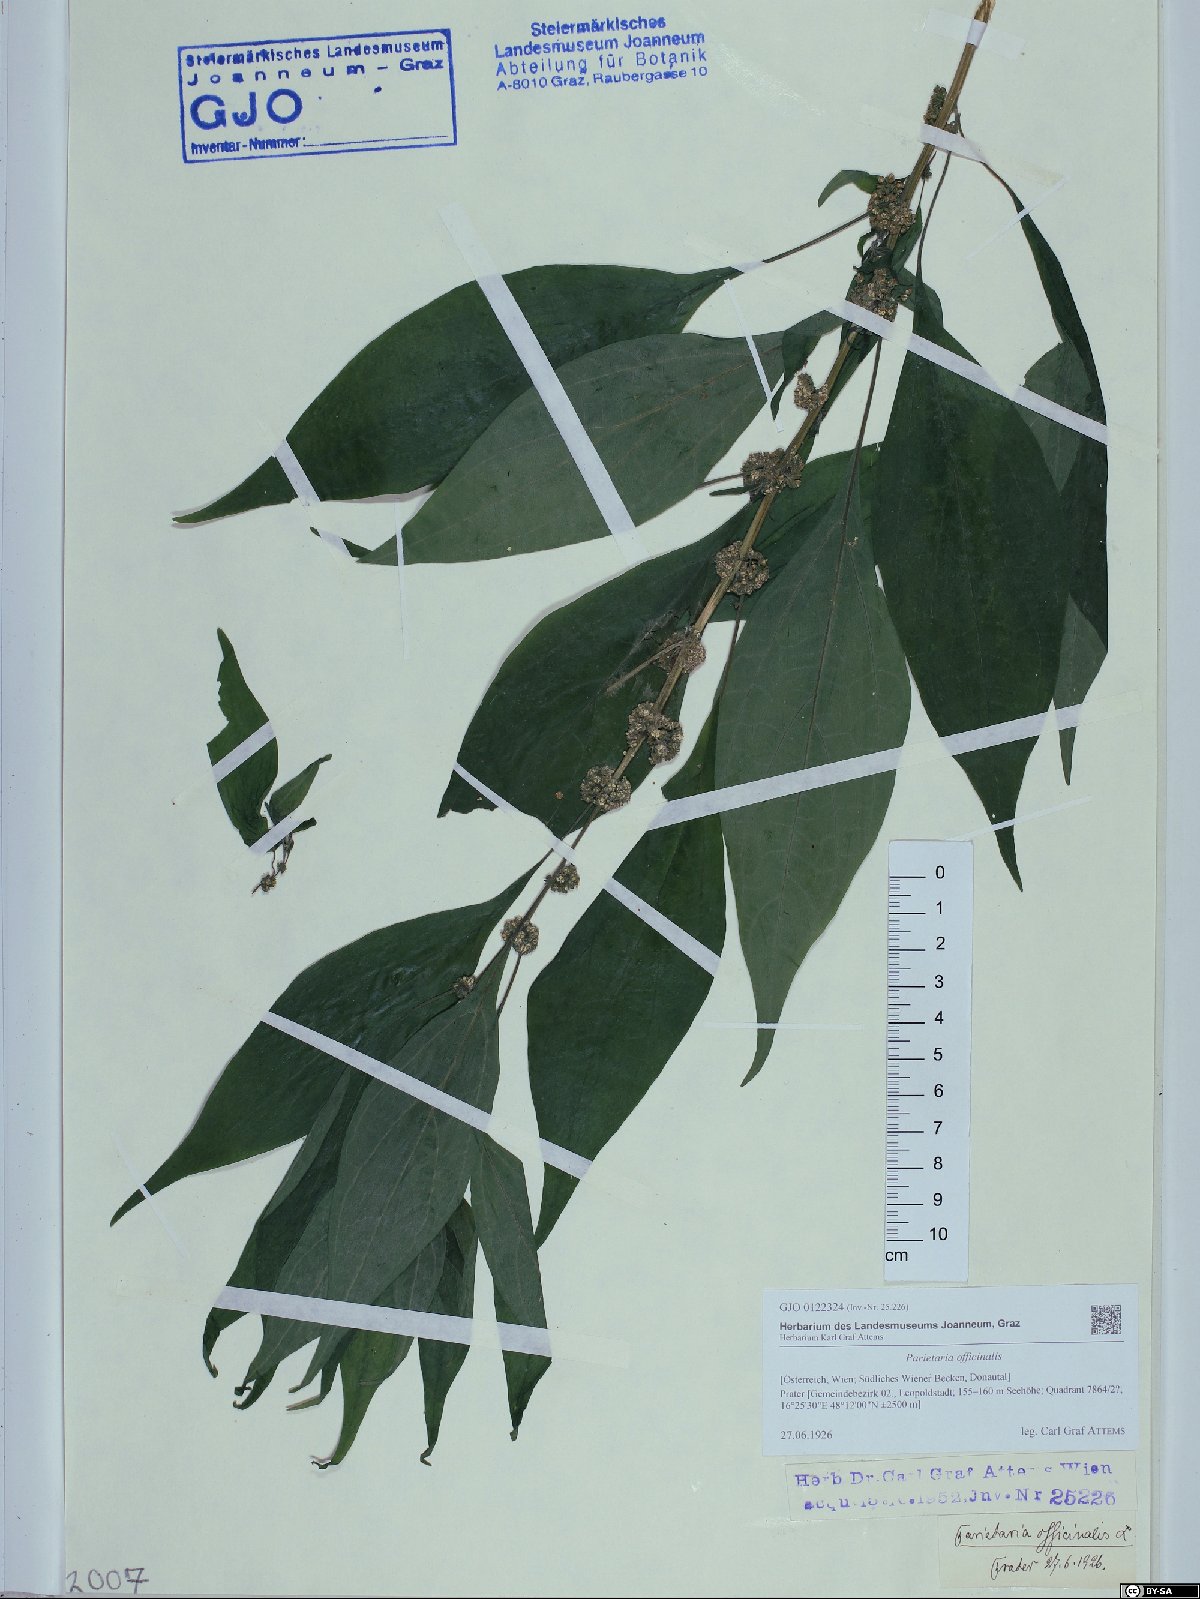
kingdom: Plantae
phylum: Tracheophyta
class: Magnoliopsida
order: Rosales
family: Urticaceae
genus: Parietaria
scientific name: Parietaria officinalis
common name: Eastern pellitory-of-the-wall
